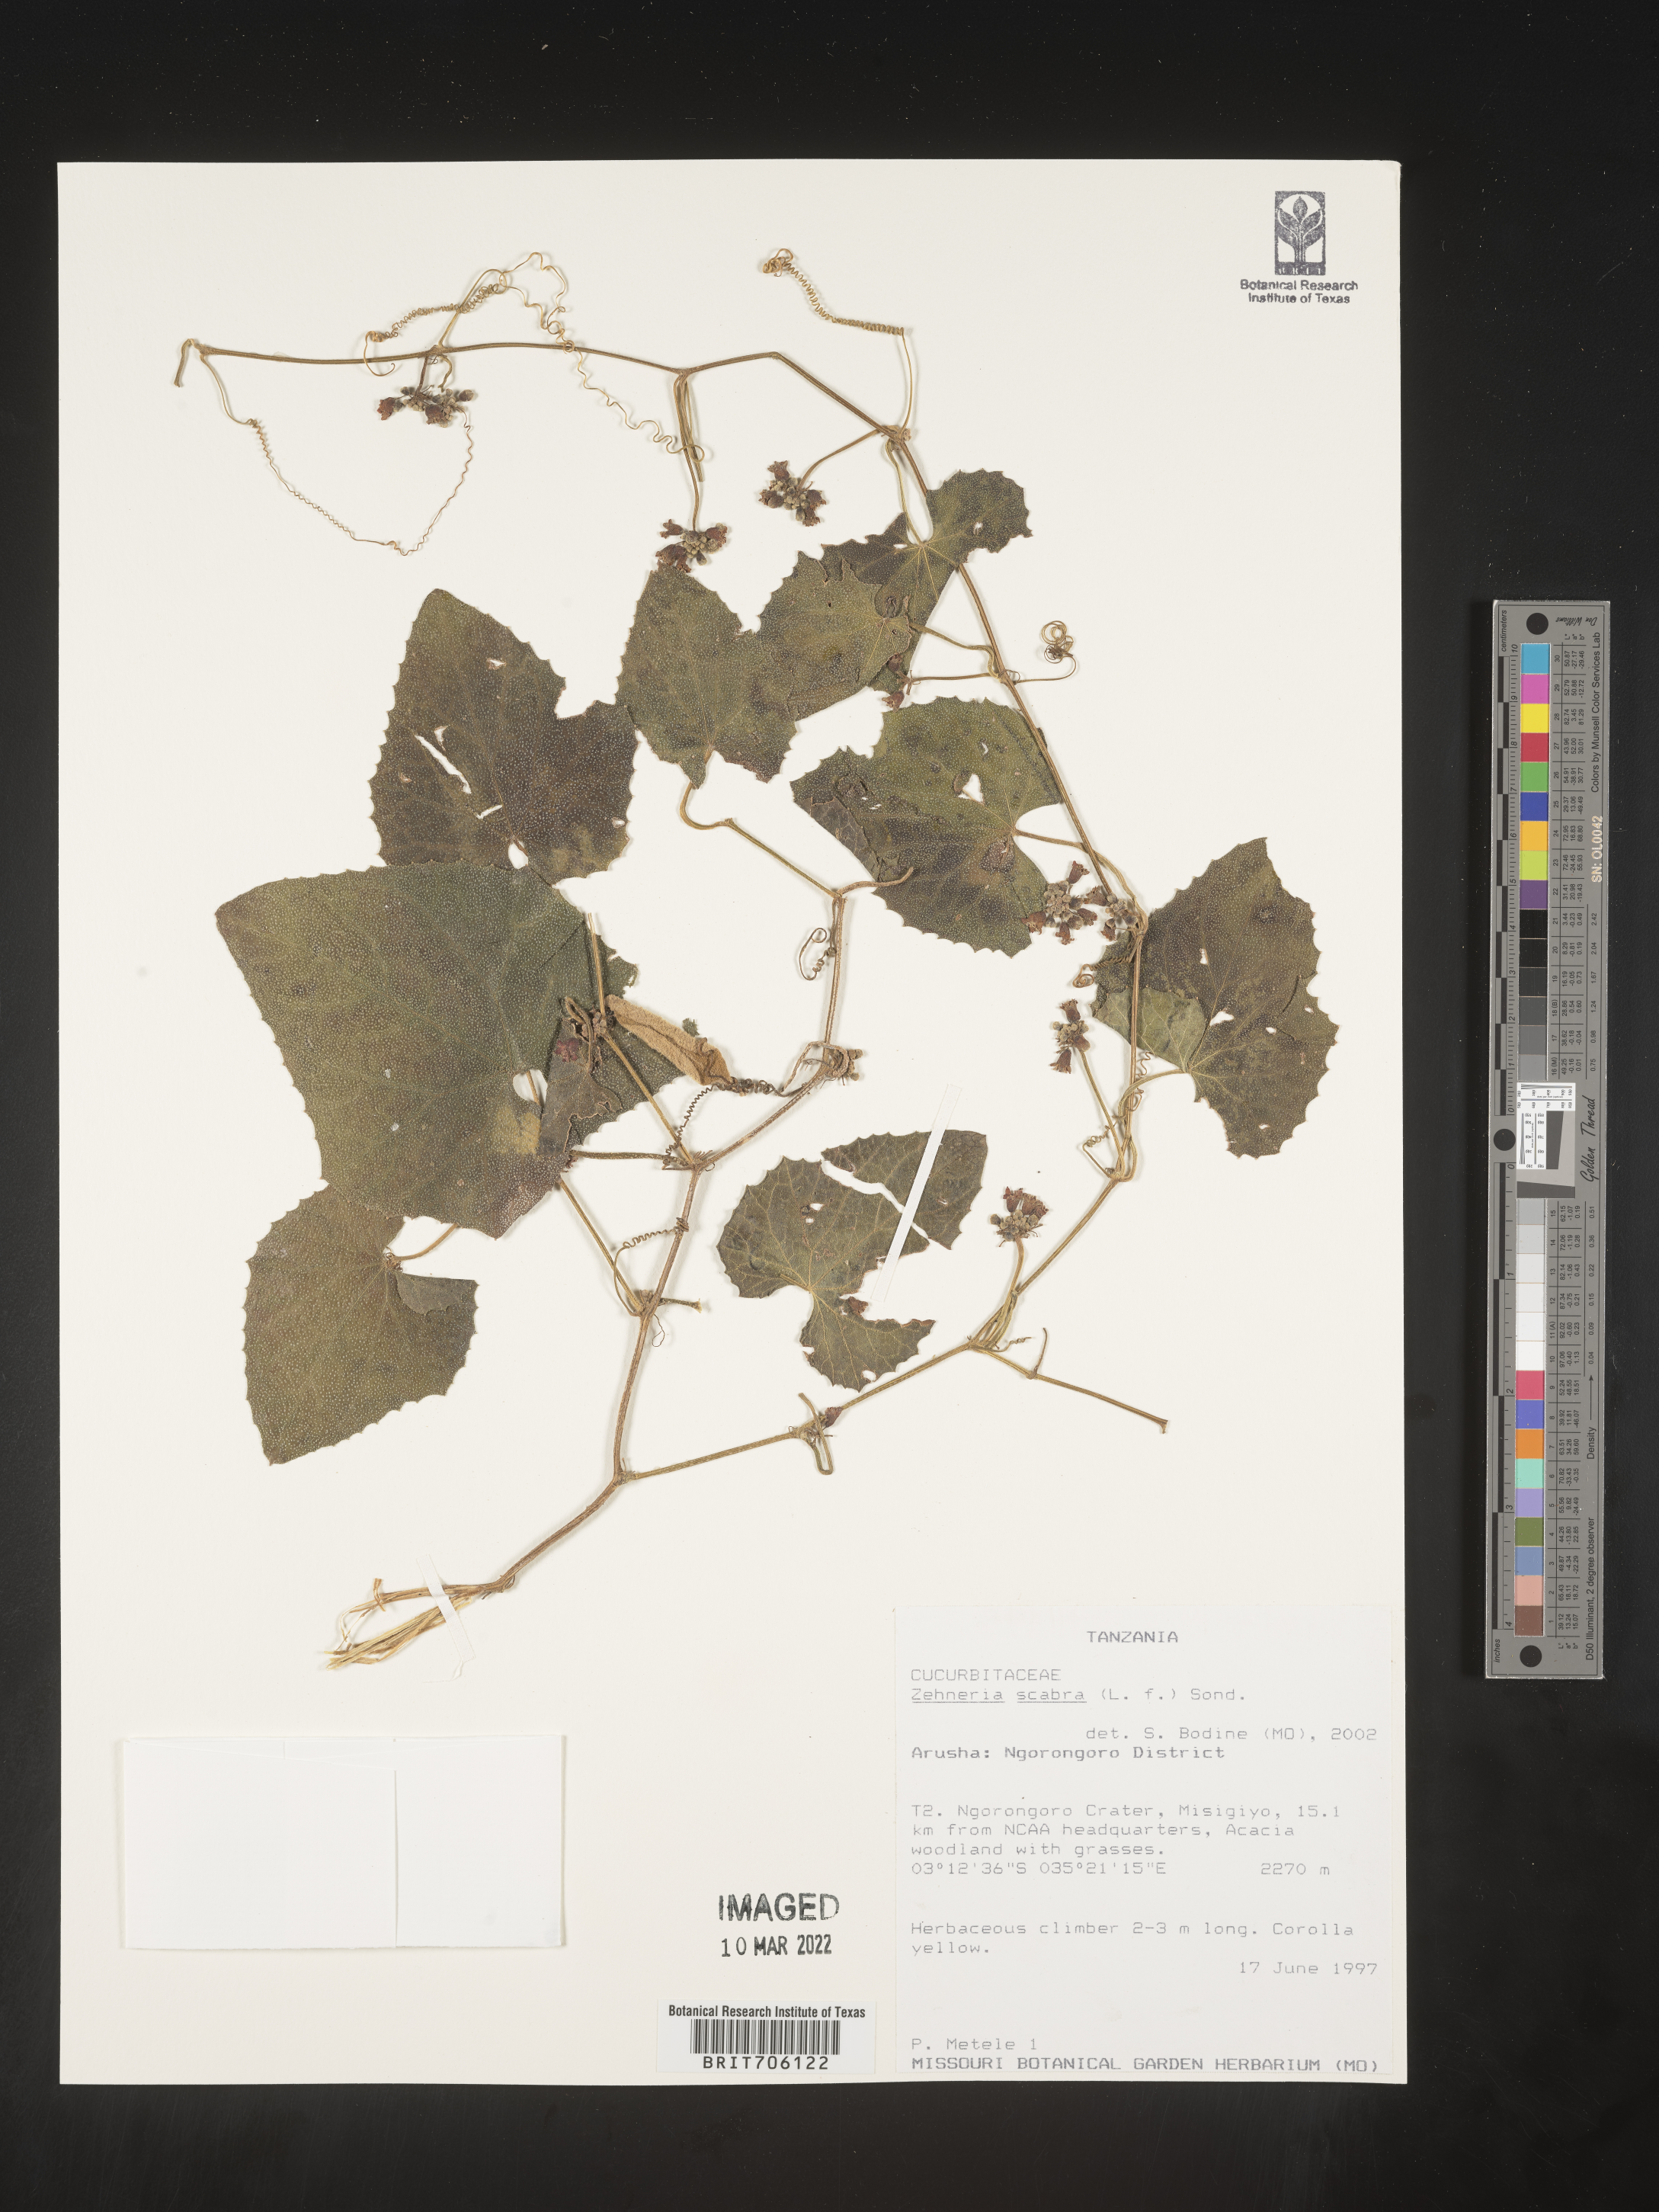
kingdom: Plantae
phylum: Tracheophyta
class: Magnoliopsida
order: Cucurbitales
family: Cucurbitaceae
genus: Zehneria
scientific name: Zehneria
